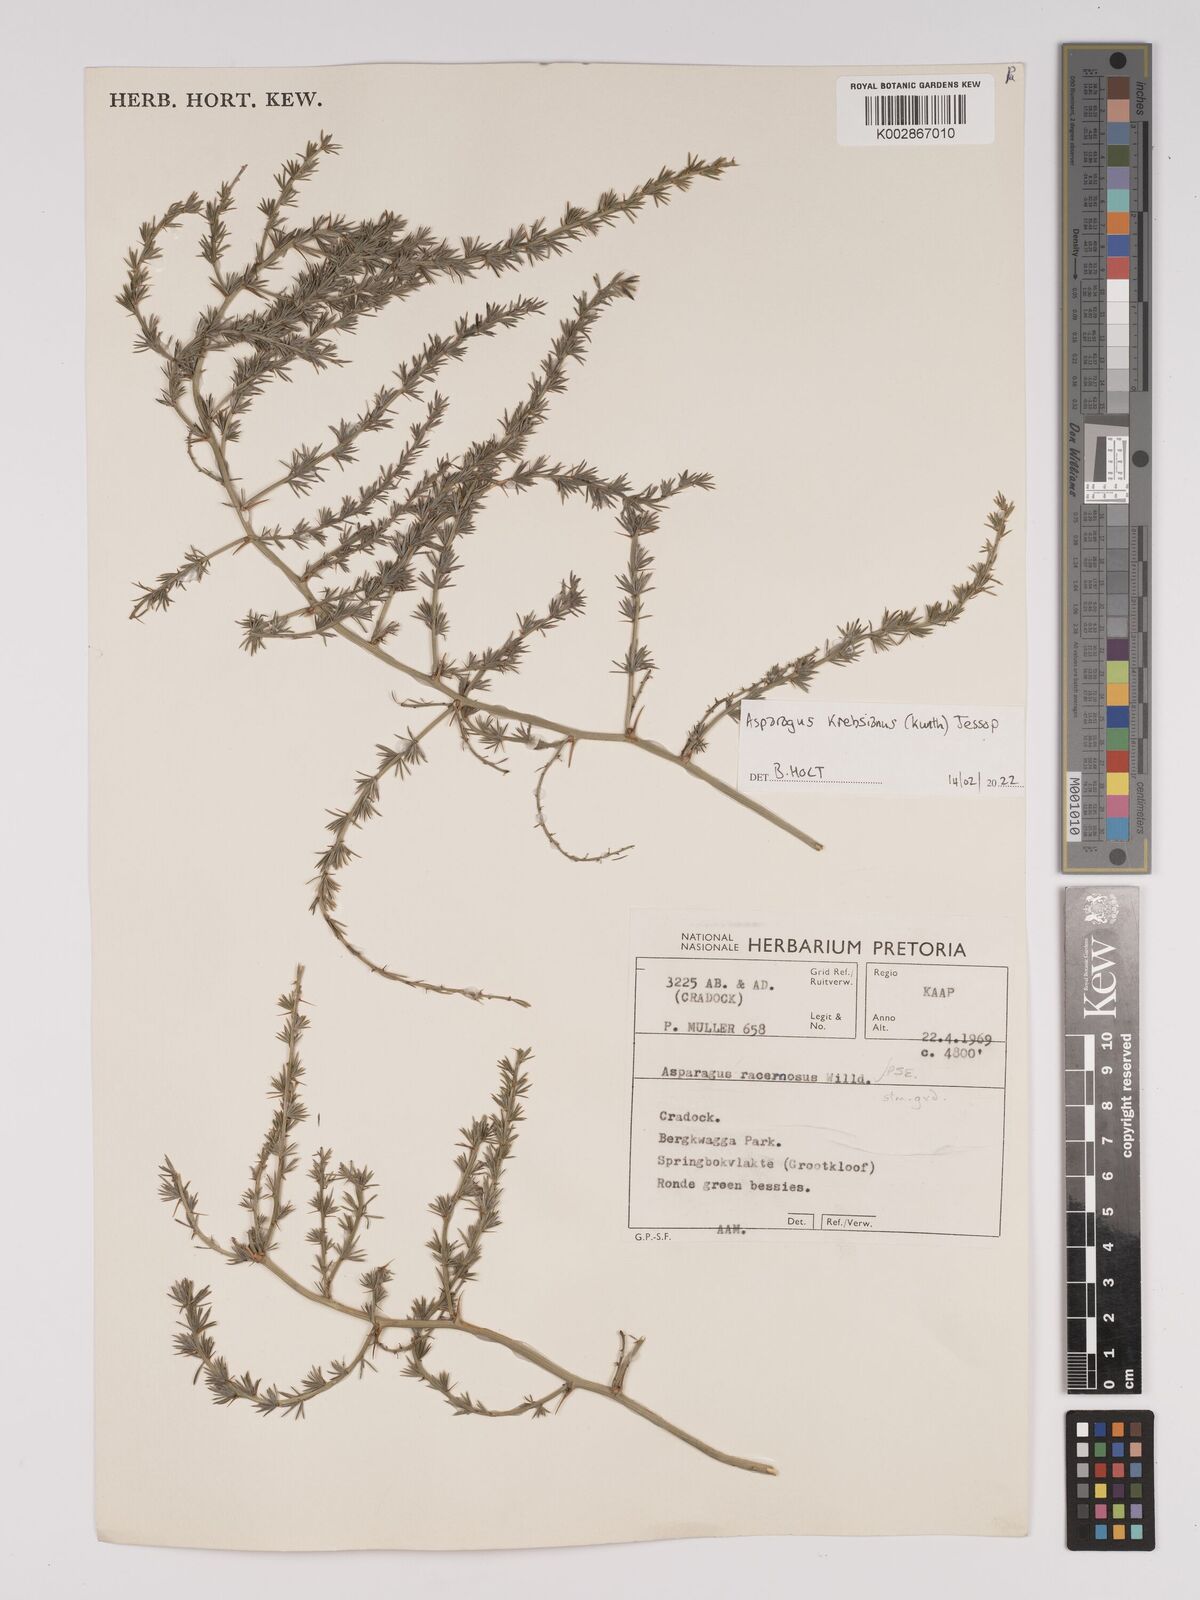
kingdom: Plantae
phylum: Tracheophyta
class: Liliopsida
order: Asparagales
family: Asparagaceae
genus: Asparagus
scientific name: Asparagus krebsianus
